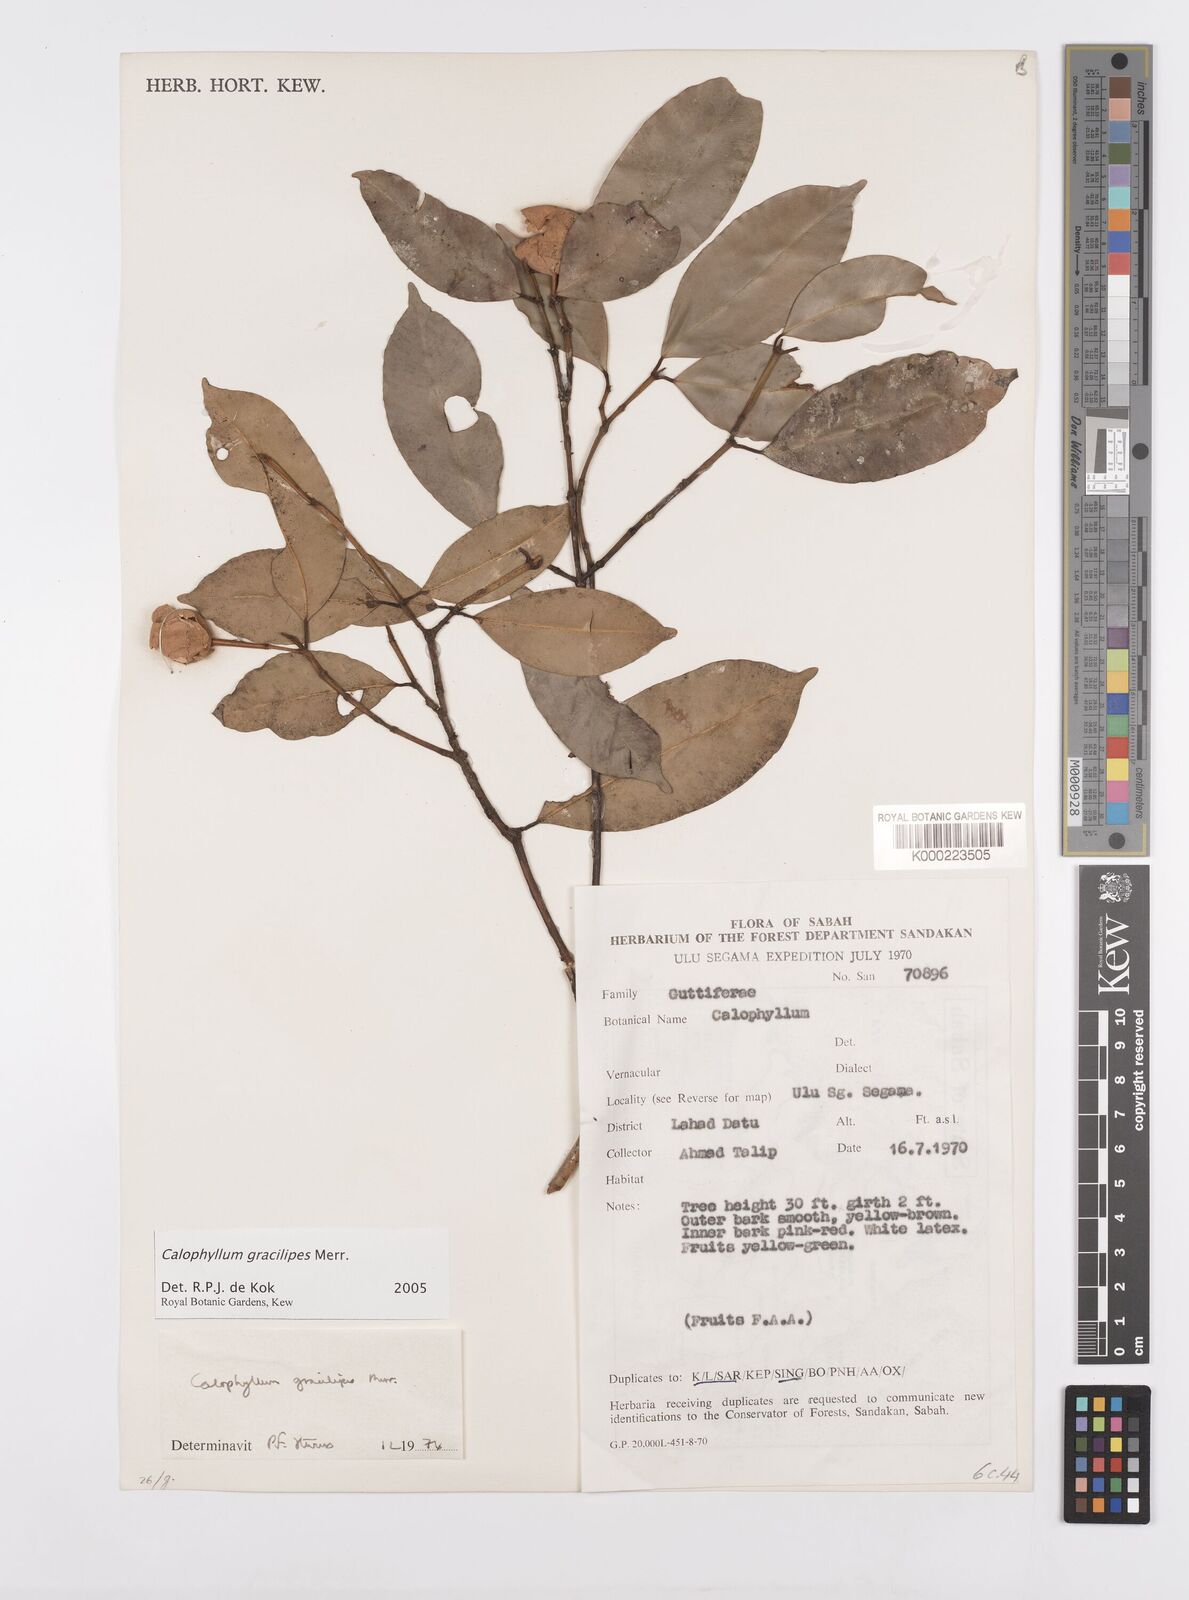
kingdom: Plantae
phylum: Tracheophyta
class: Magnoliopsida
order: Malpighiales
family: Calophyllaceae
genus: Calophyllum
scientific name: Calophyllum gracilipes
